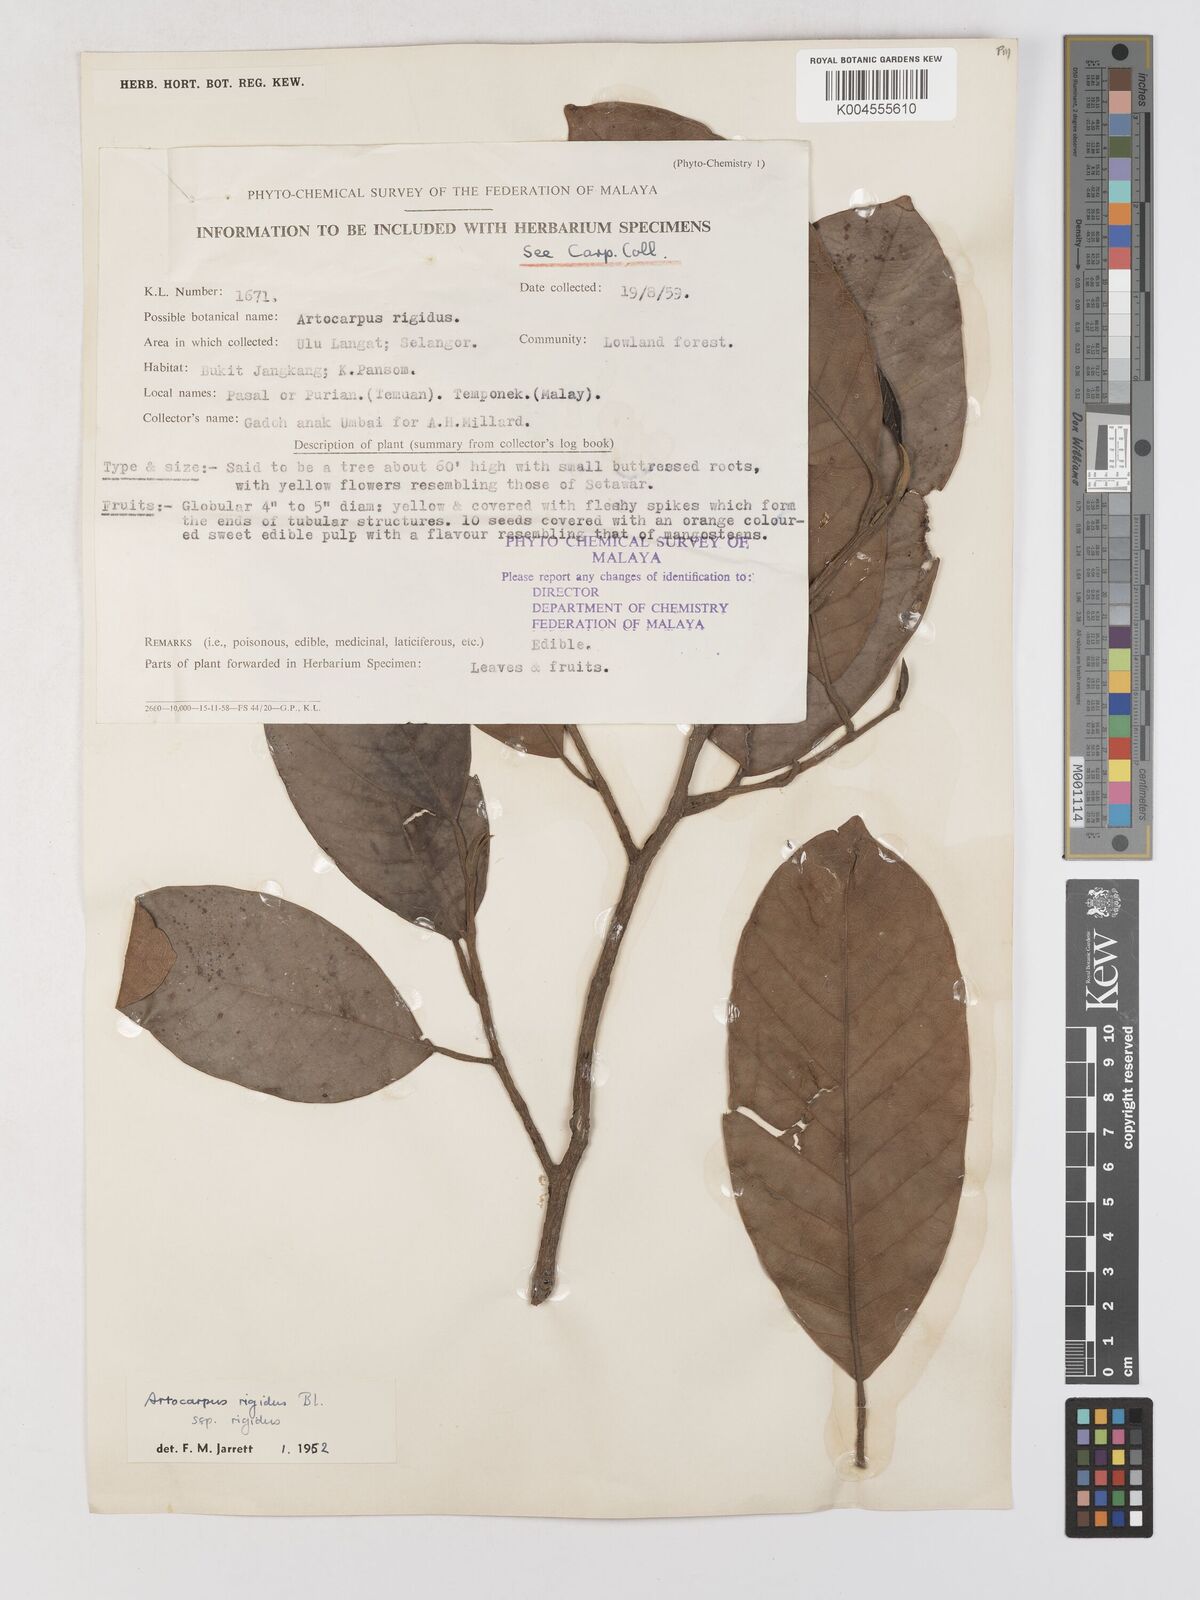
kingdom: Plantae
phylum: Tracheophyta
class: Magnoliopsida
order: Rosales
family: Moraceae
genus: Artocarpus
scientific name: Artocarpus
